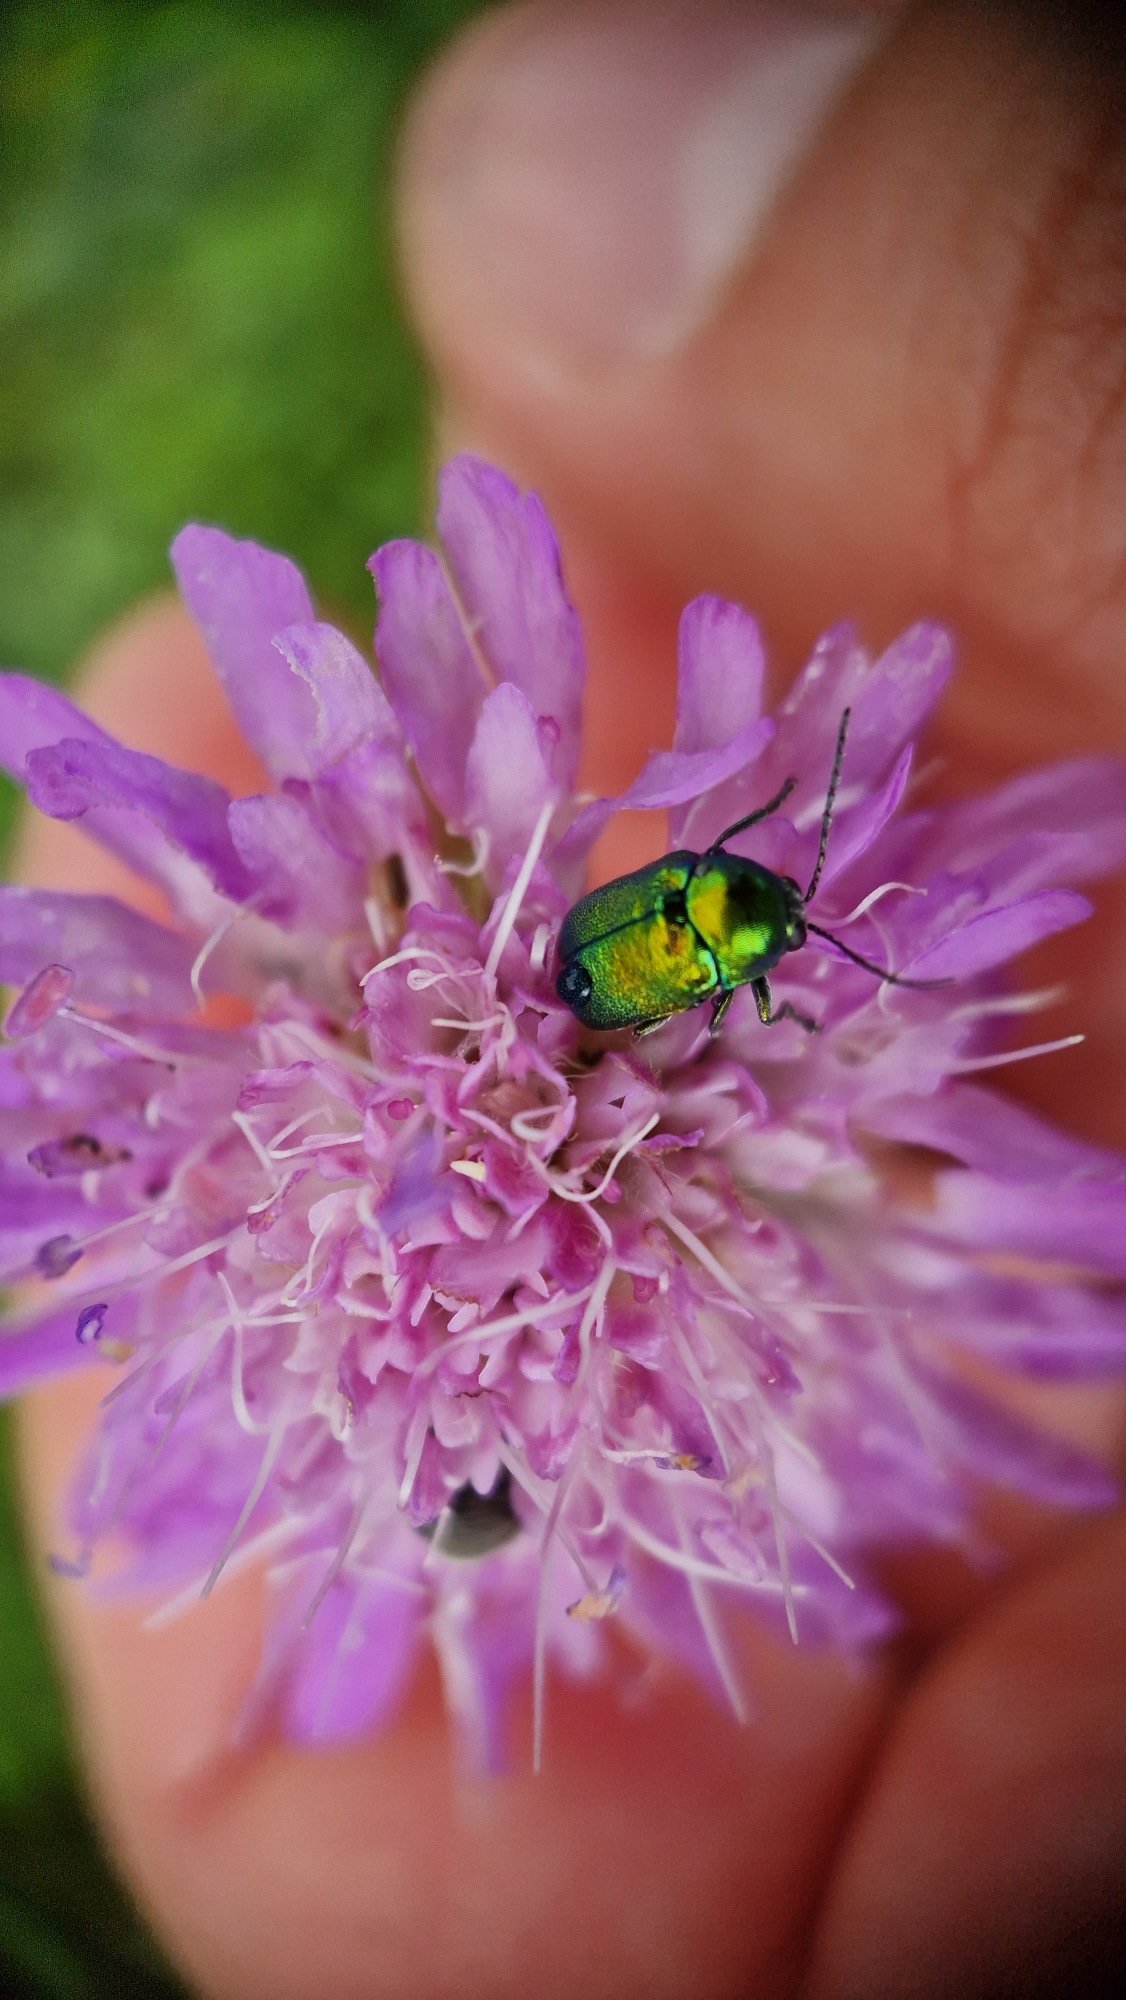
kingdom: Animalia
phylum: Arthropoda
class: Insecta
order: Coleoptera
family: Chrysomelidae
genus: Cryptocephalus
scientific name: Cryptocephalus aureolus
